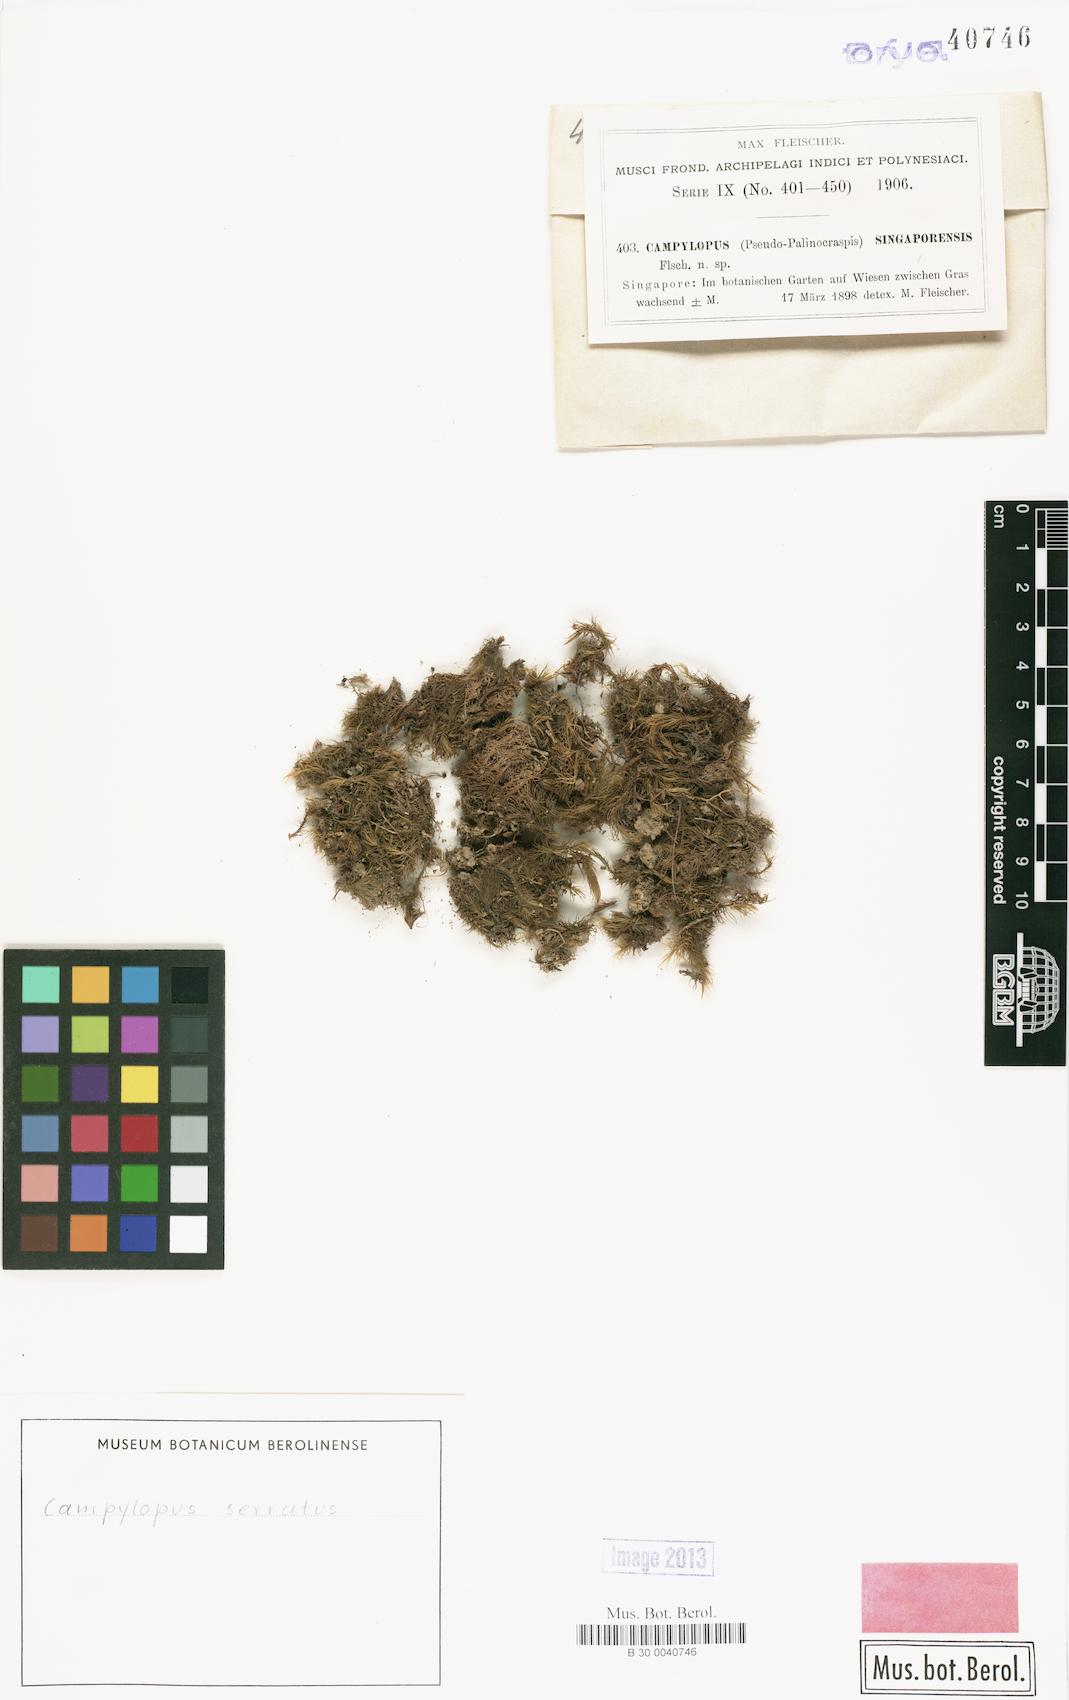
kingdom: Plantae
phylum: Bryophyta
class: Bryopsida
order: Dicranales
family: Leucobryaceae
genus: Campylopus
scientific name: Campylopus serratus
